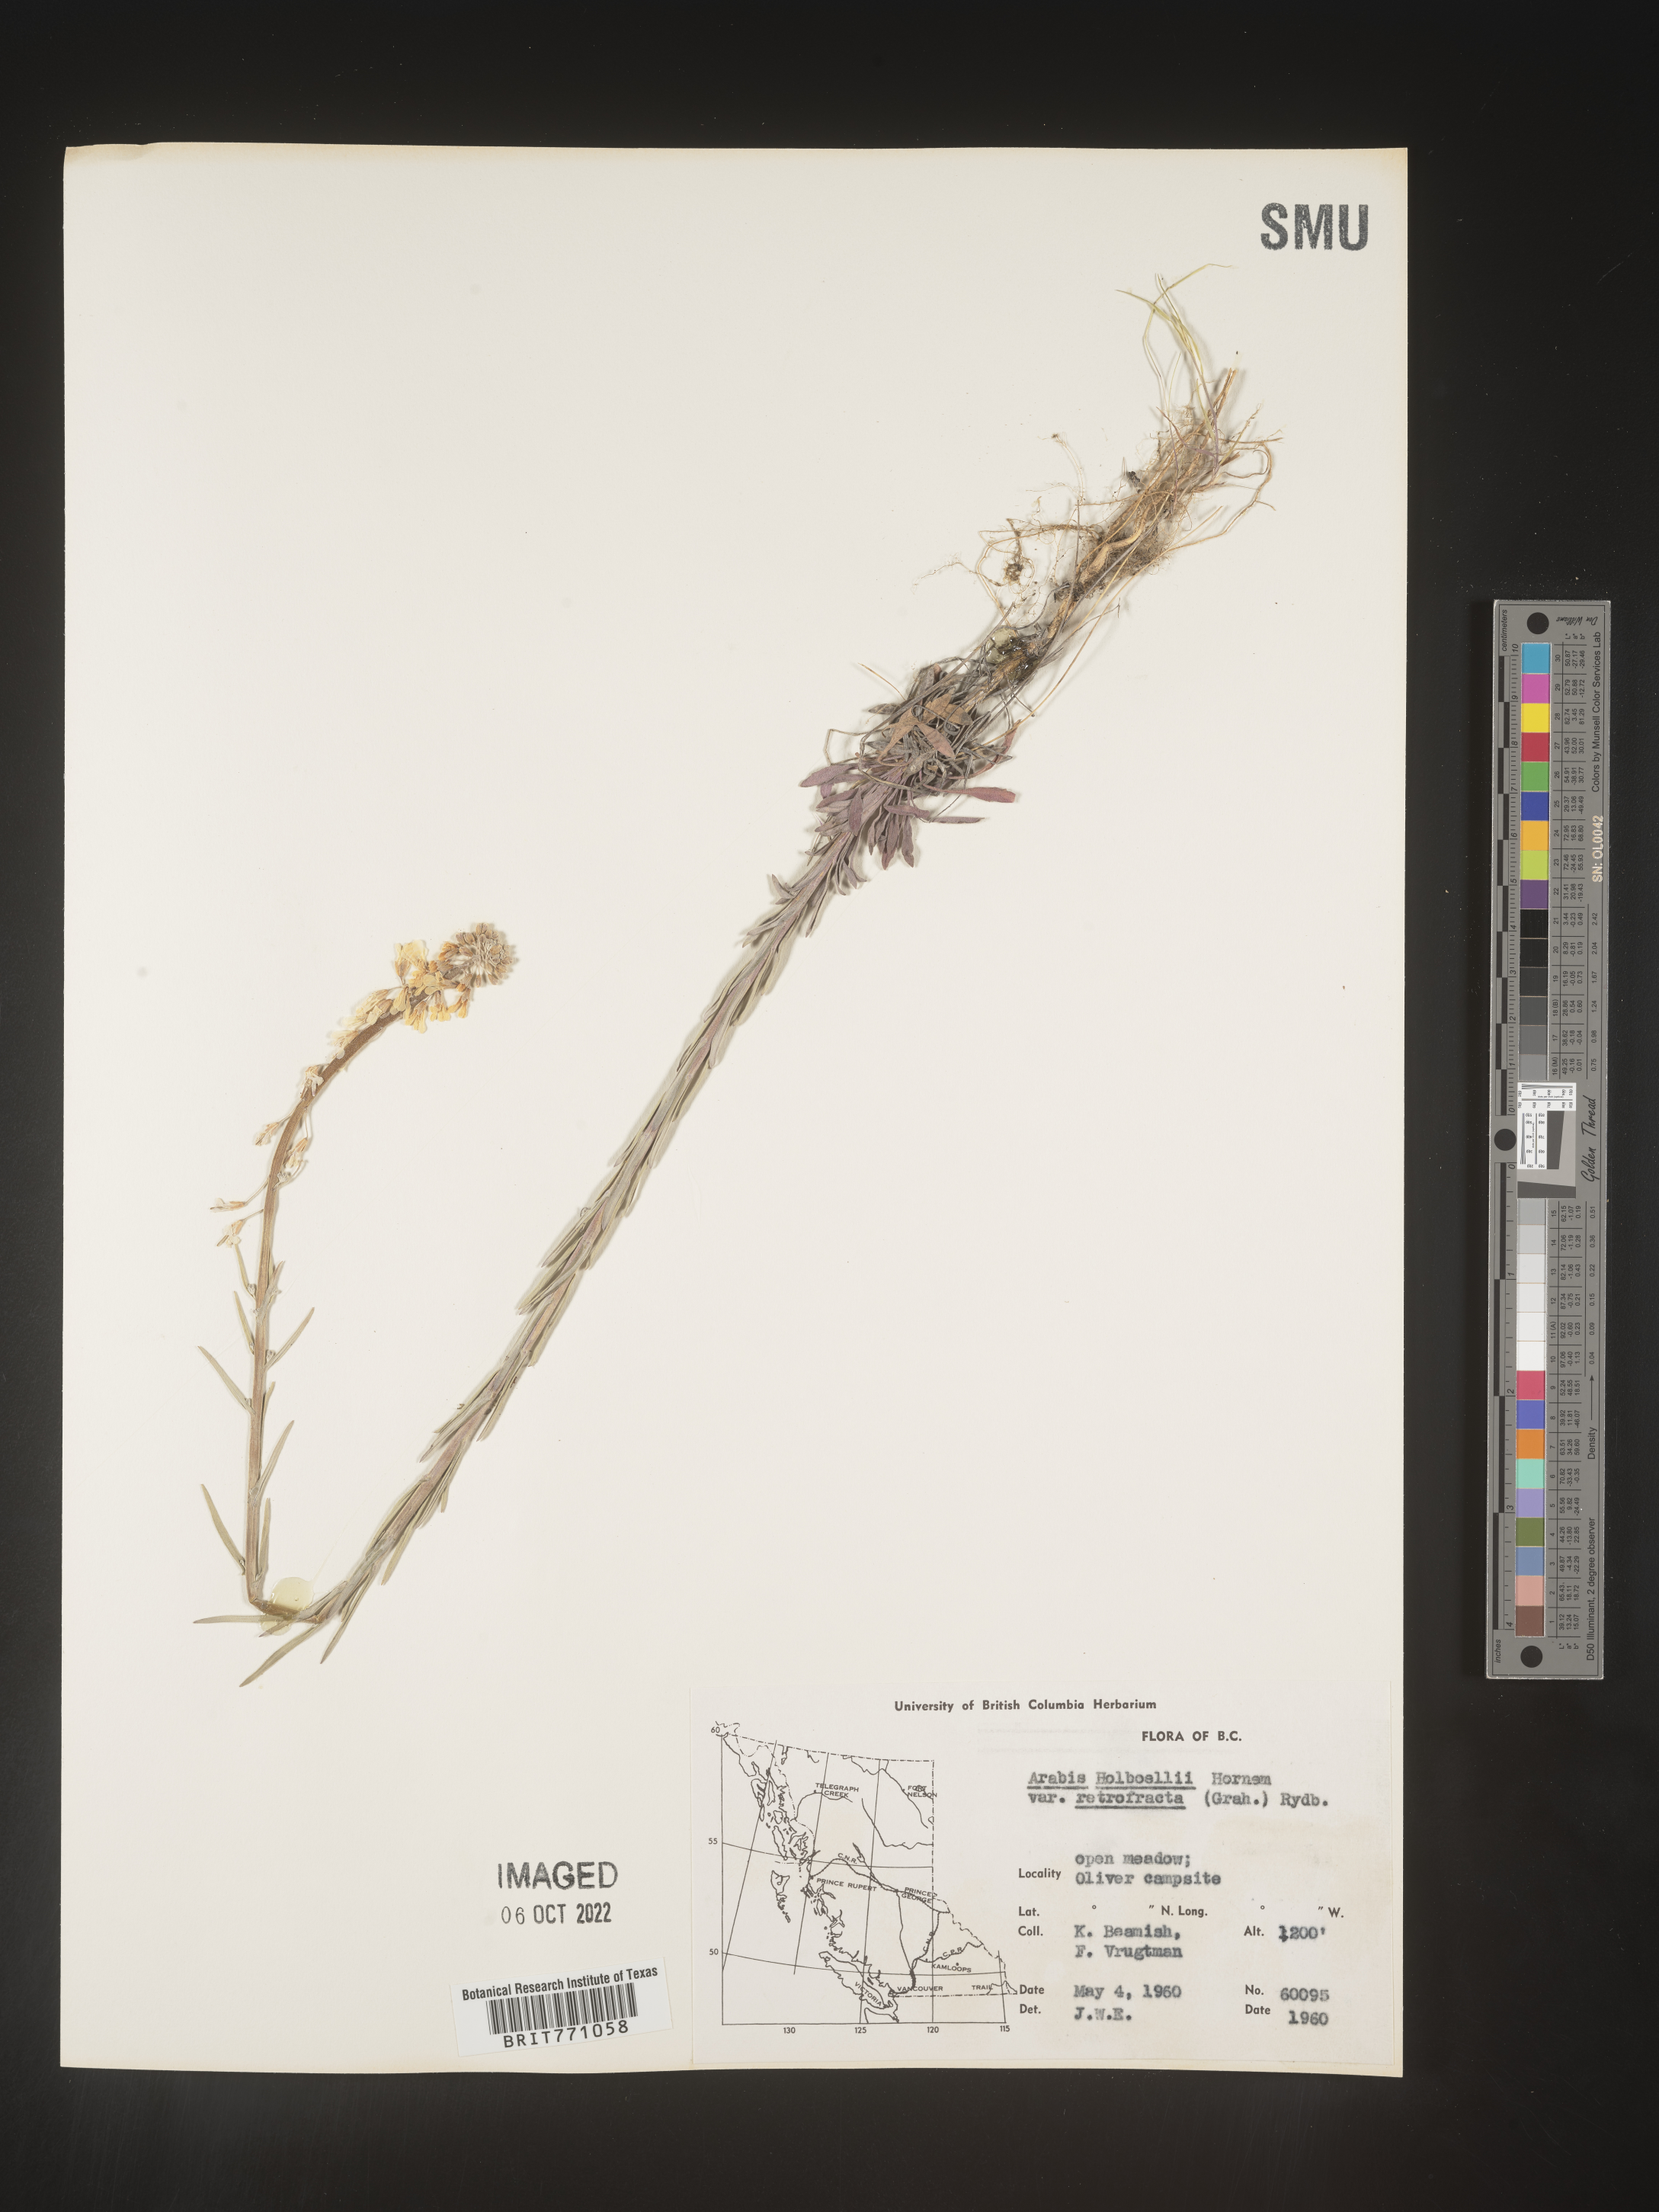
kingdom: Plantae
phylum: Tracheophyta
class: Magnoliopsida
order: Brassicales
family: Brassicaceae
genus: Boechera
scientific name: Boechera holboellii
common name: Holboell's rockcress
